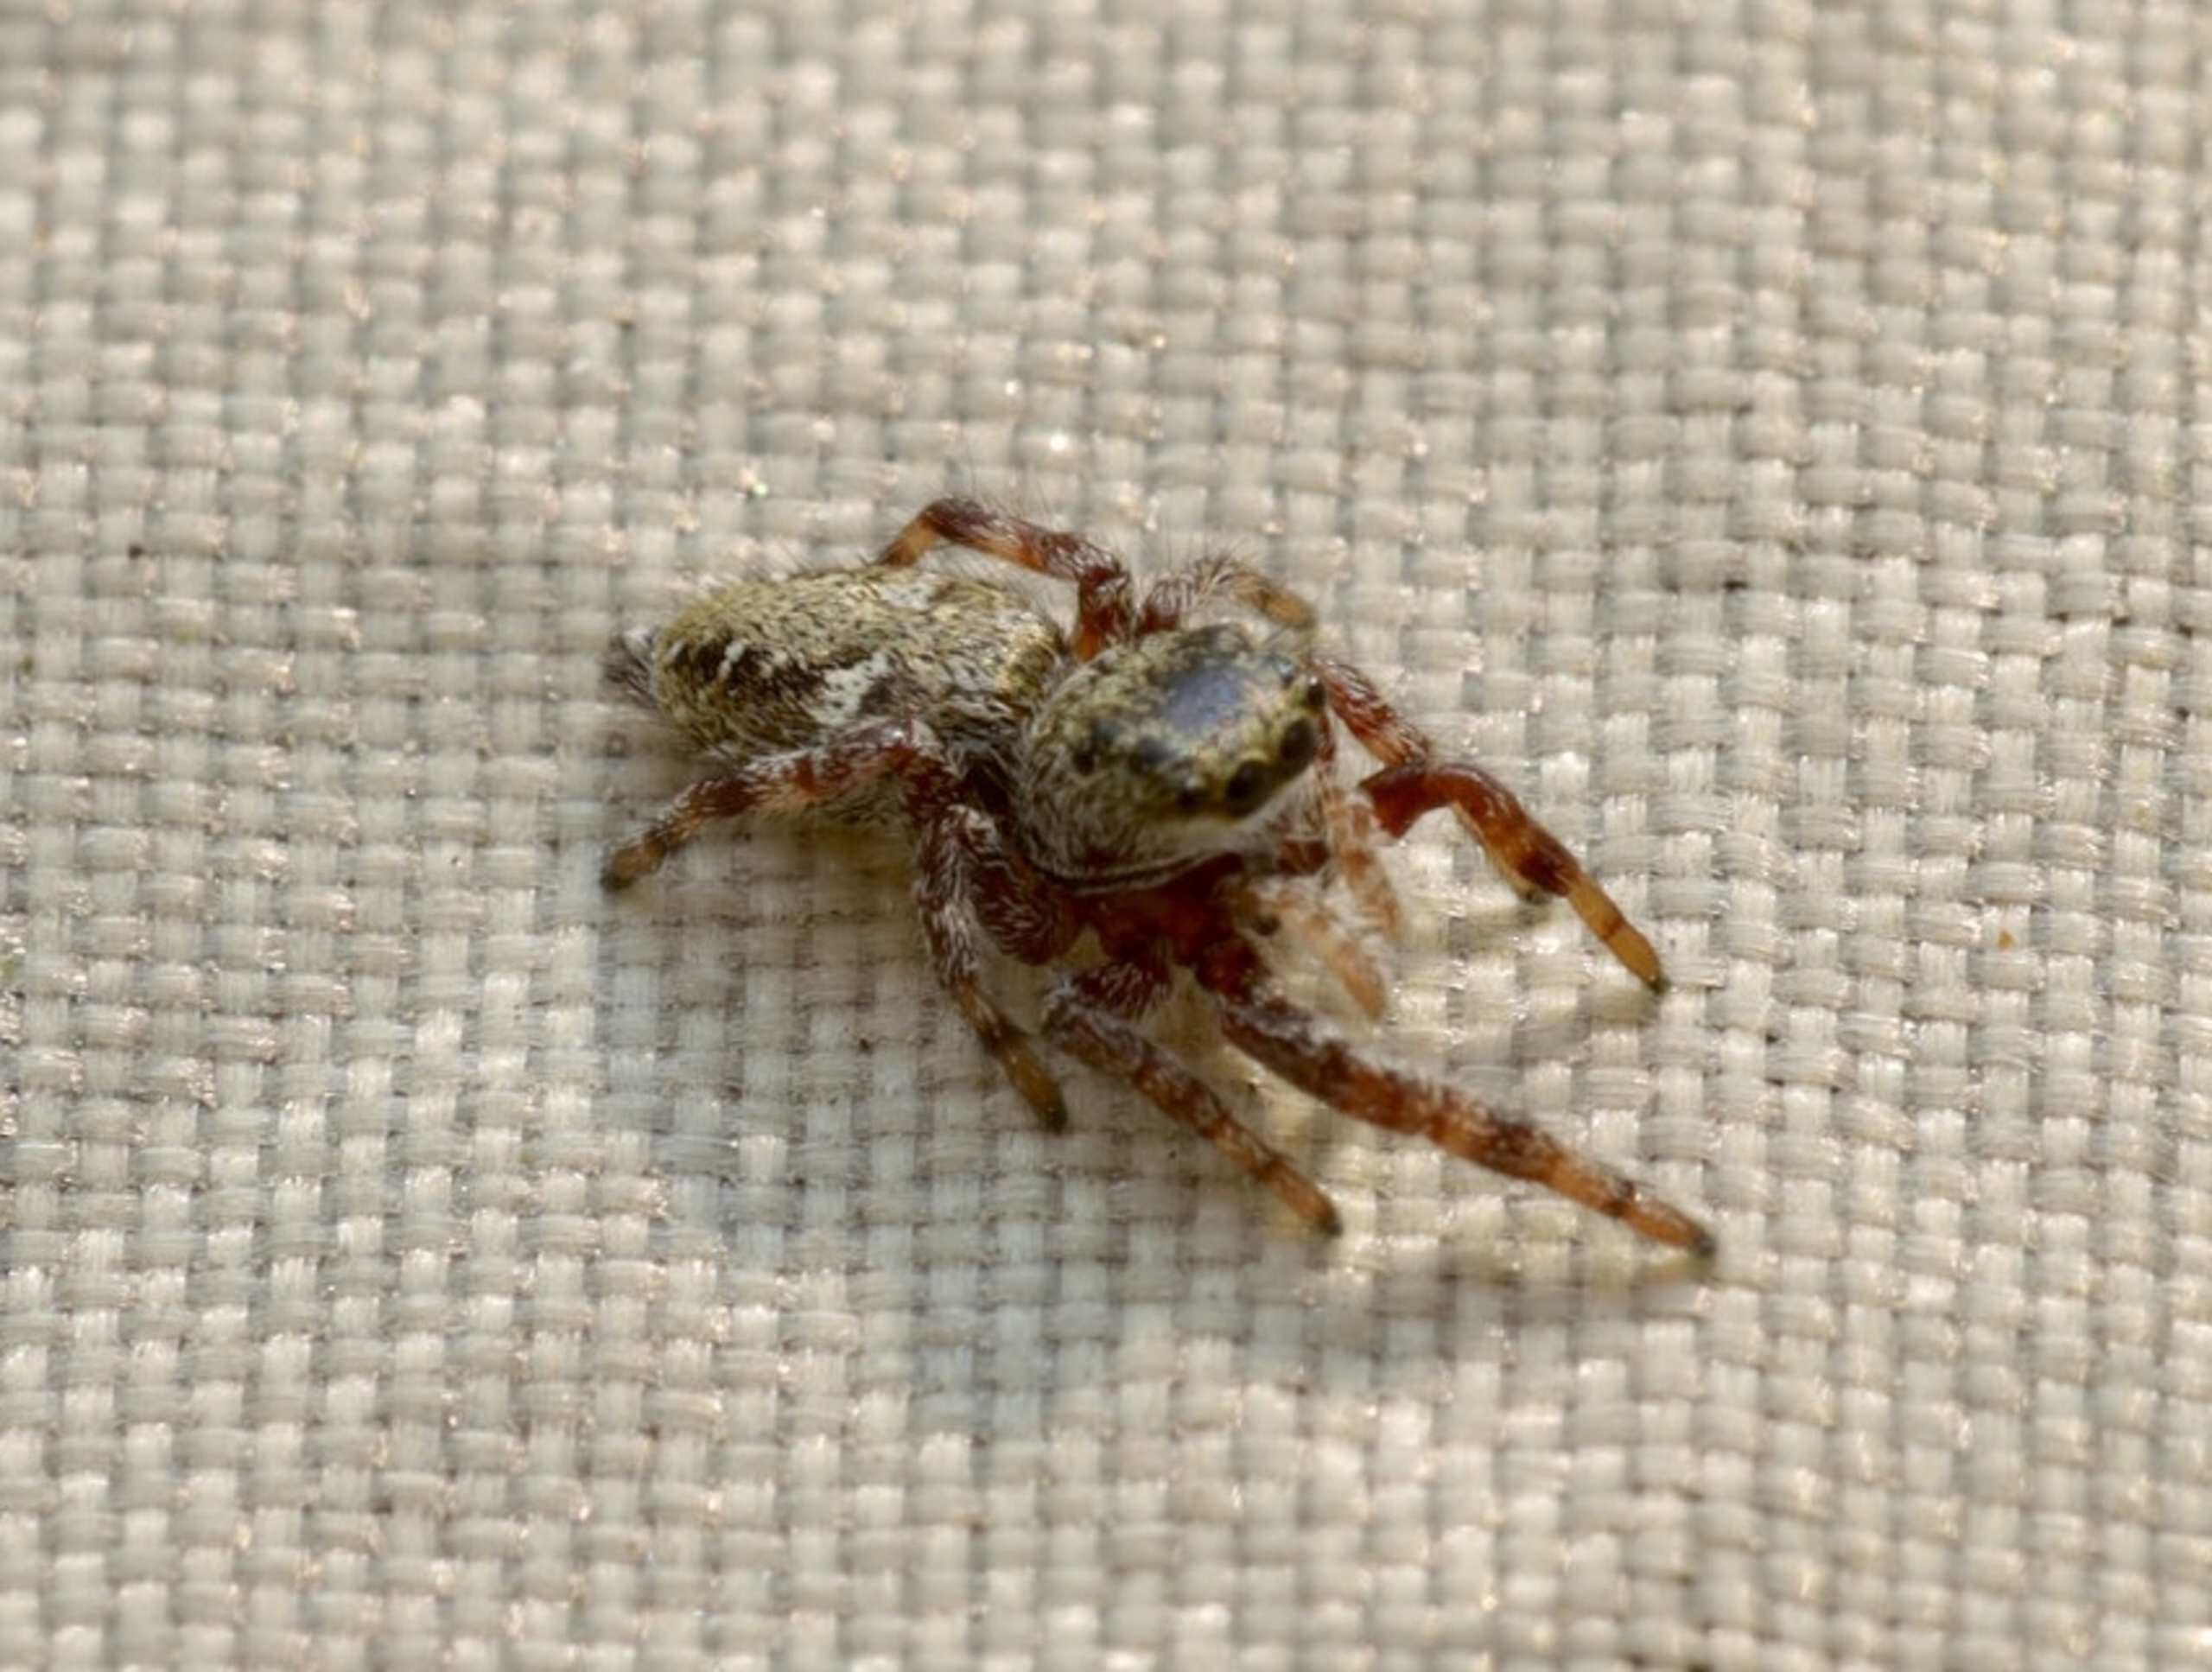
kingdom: Animalia
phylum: Arthropoda
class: Arachnida
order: Araneae
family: Salticidae
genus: Dendryphantes
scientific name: Dendryphantes rudis
